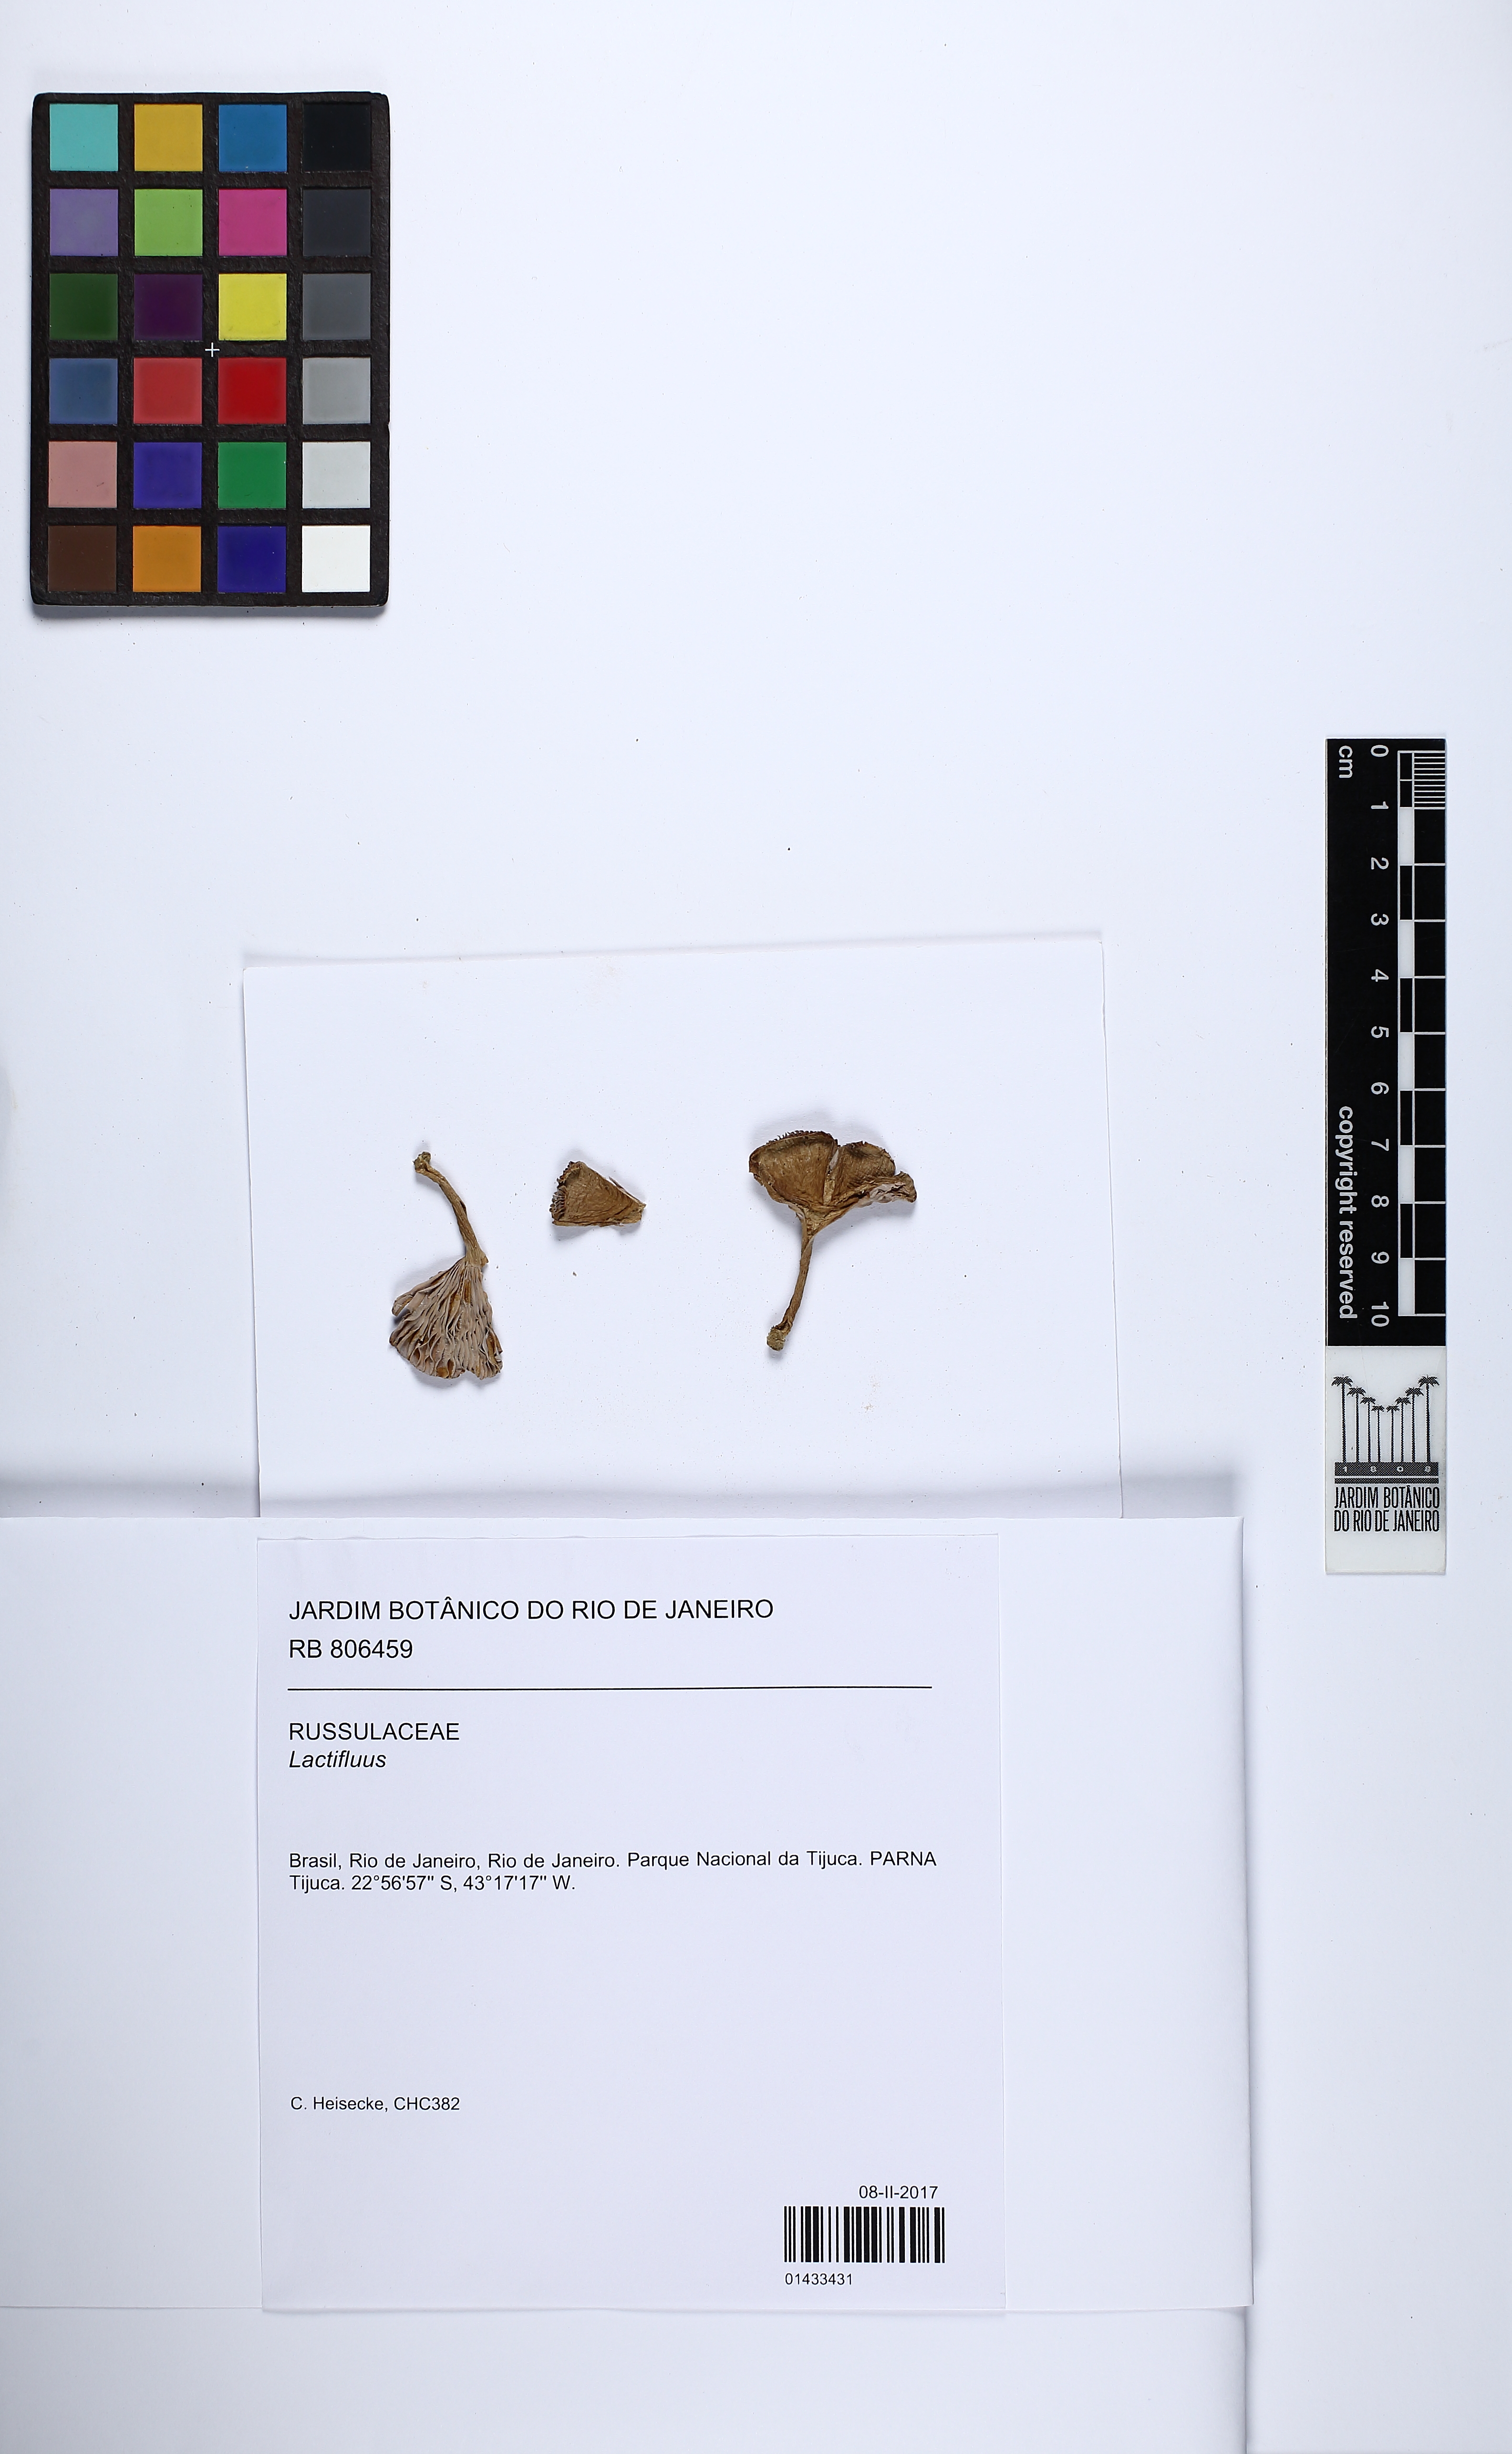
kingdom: Fungi
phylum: Basidiomycota
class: Agaricomycetes
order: Russulales
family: Russulaceae
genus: Lactifluus
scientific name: Lactifluus
